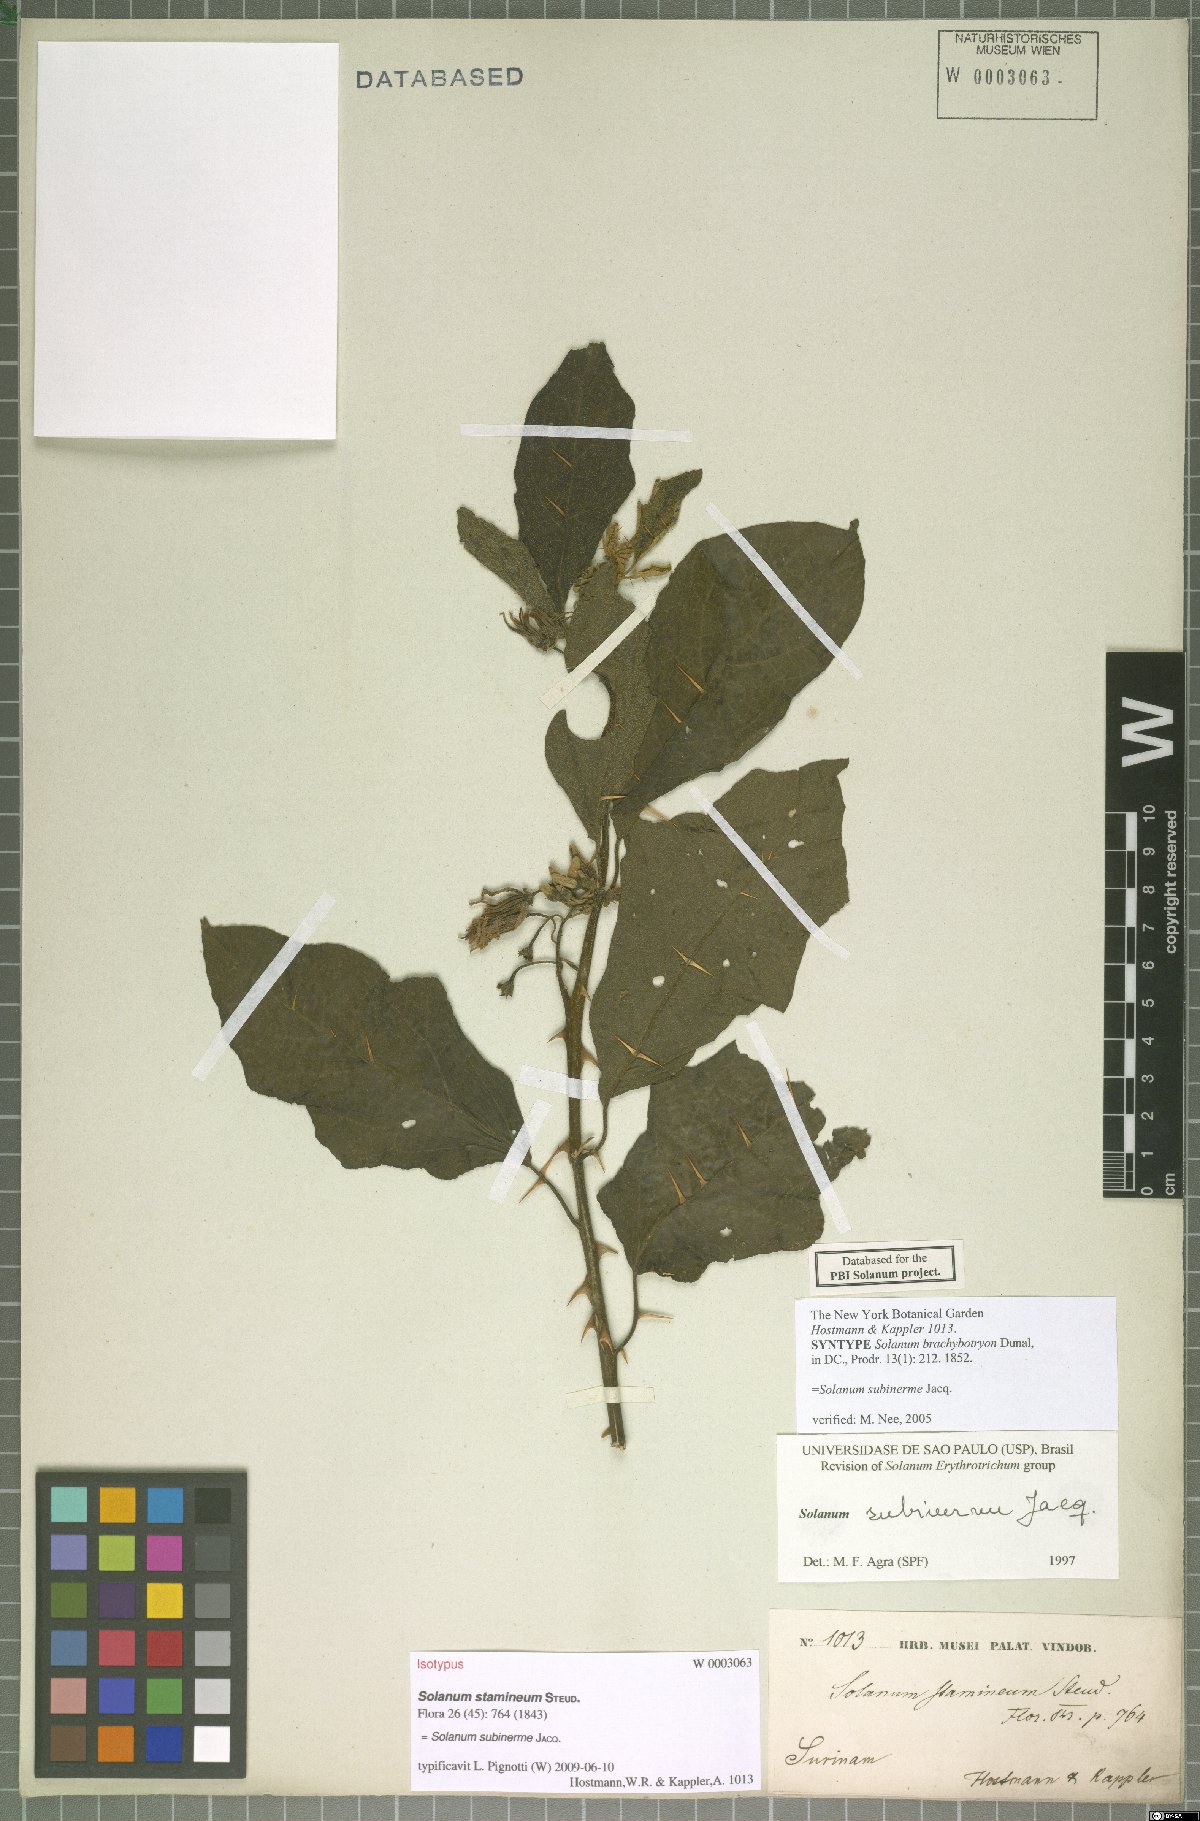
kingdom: Plantae
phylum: Tracheophyta
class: Magnoliopsida
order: Solanales
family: Solanaceae
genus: Solanum
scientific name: Solanum subinerme
